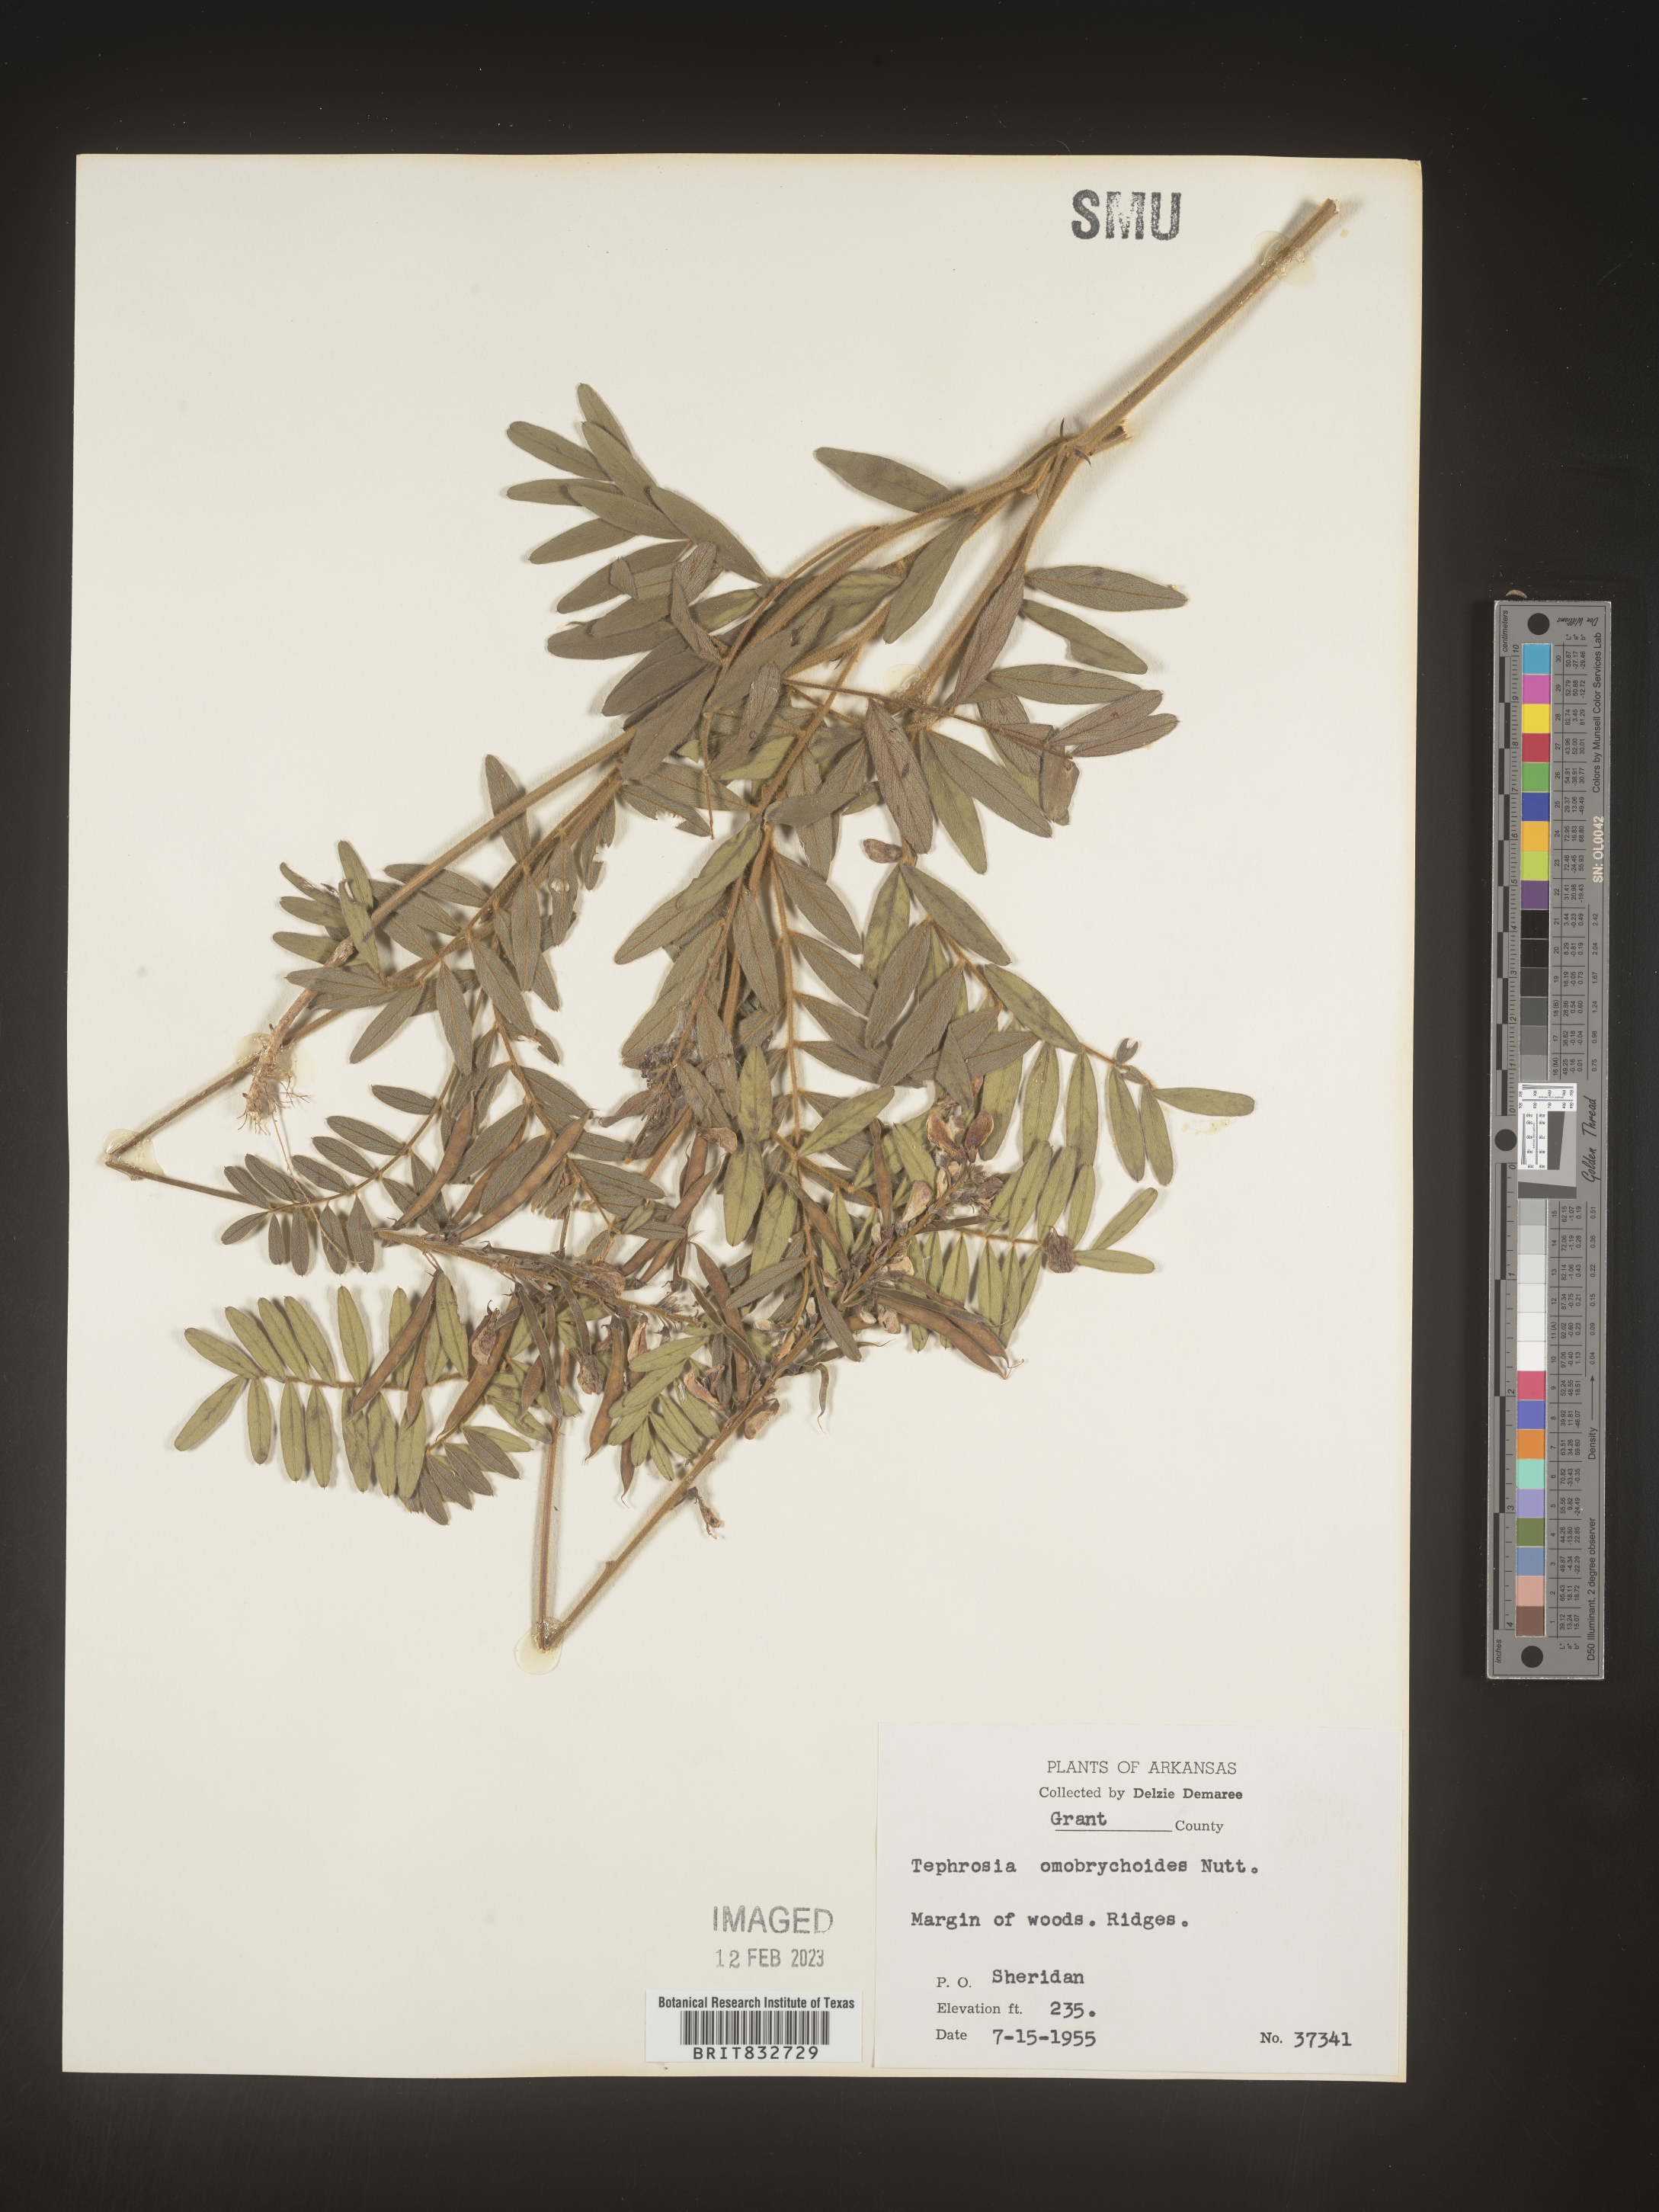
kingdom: Plantae
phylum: Tracheophyta
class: Magnoliopsida
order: Fabales
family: Fabaceae
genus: Tephrosia
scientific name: Tephrosia onobrychoides
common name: Multi-bloom hoary-pea
